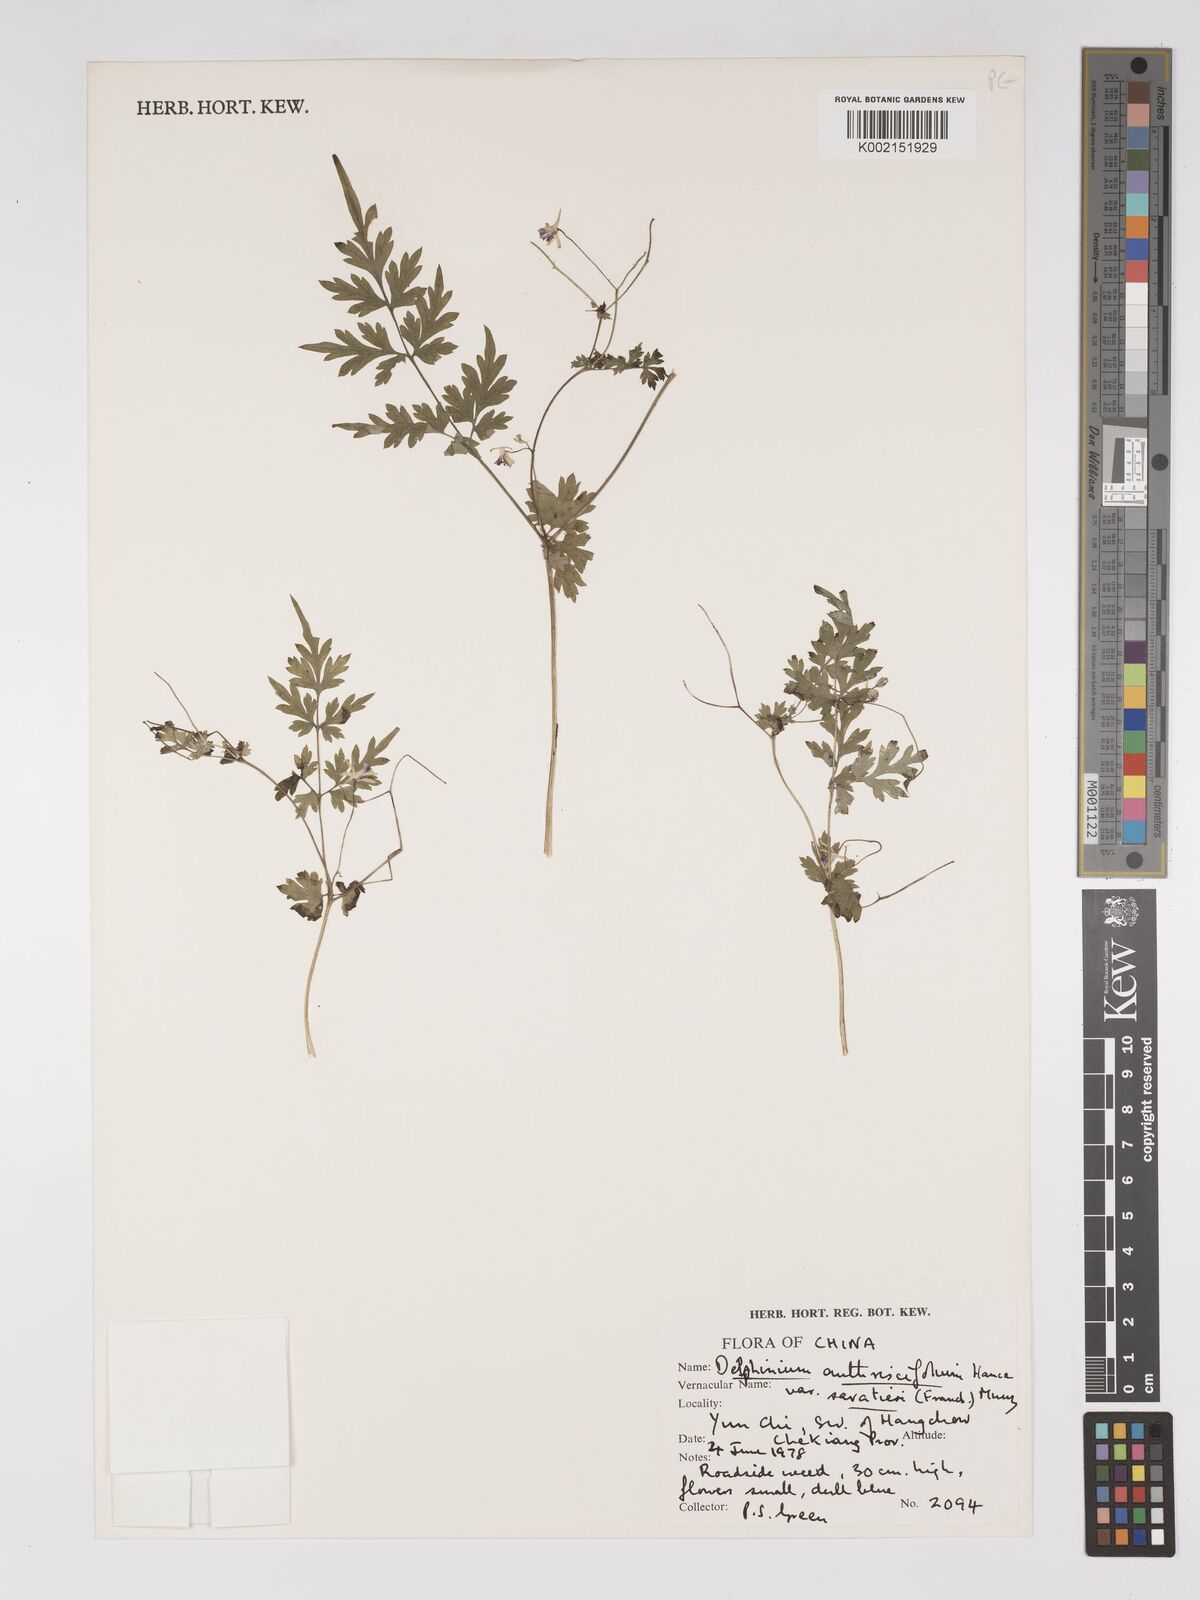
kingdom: Plantae
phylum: Tracheophyta
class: Magnoliopsida
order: Ranunculales
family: Ranunculaceae
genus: Delphinium
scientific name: Delphinium anthriscifolium
